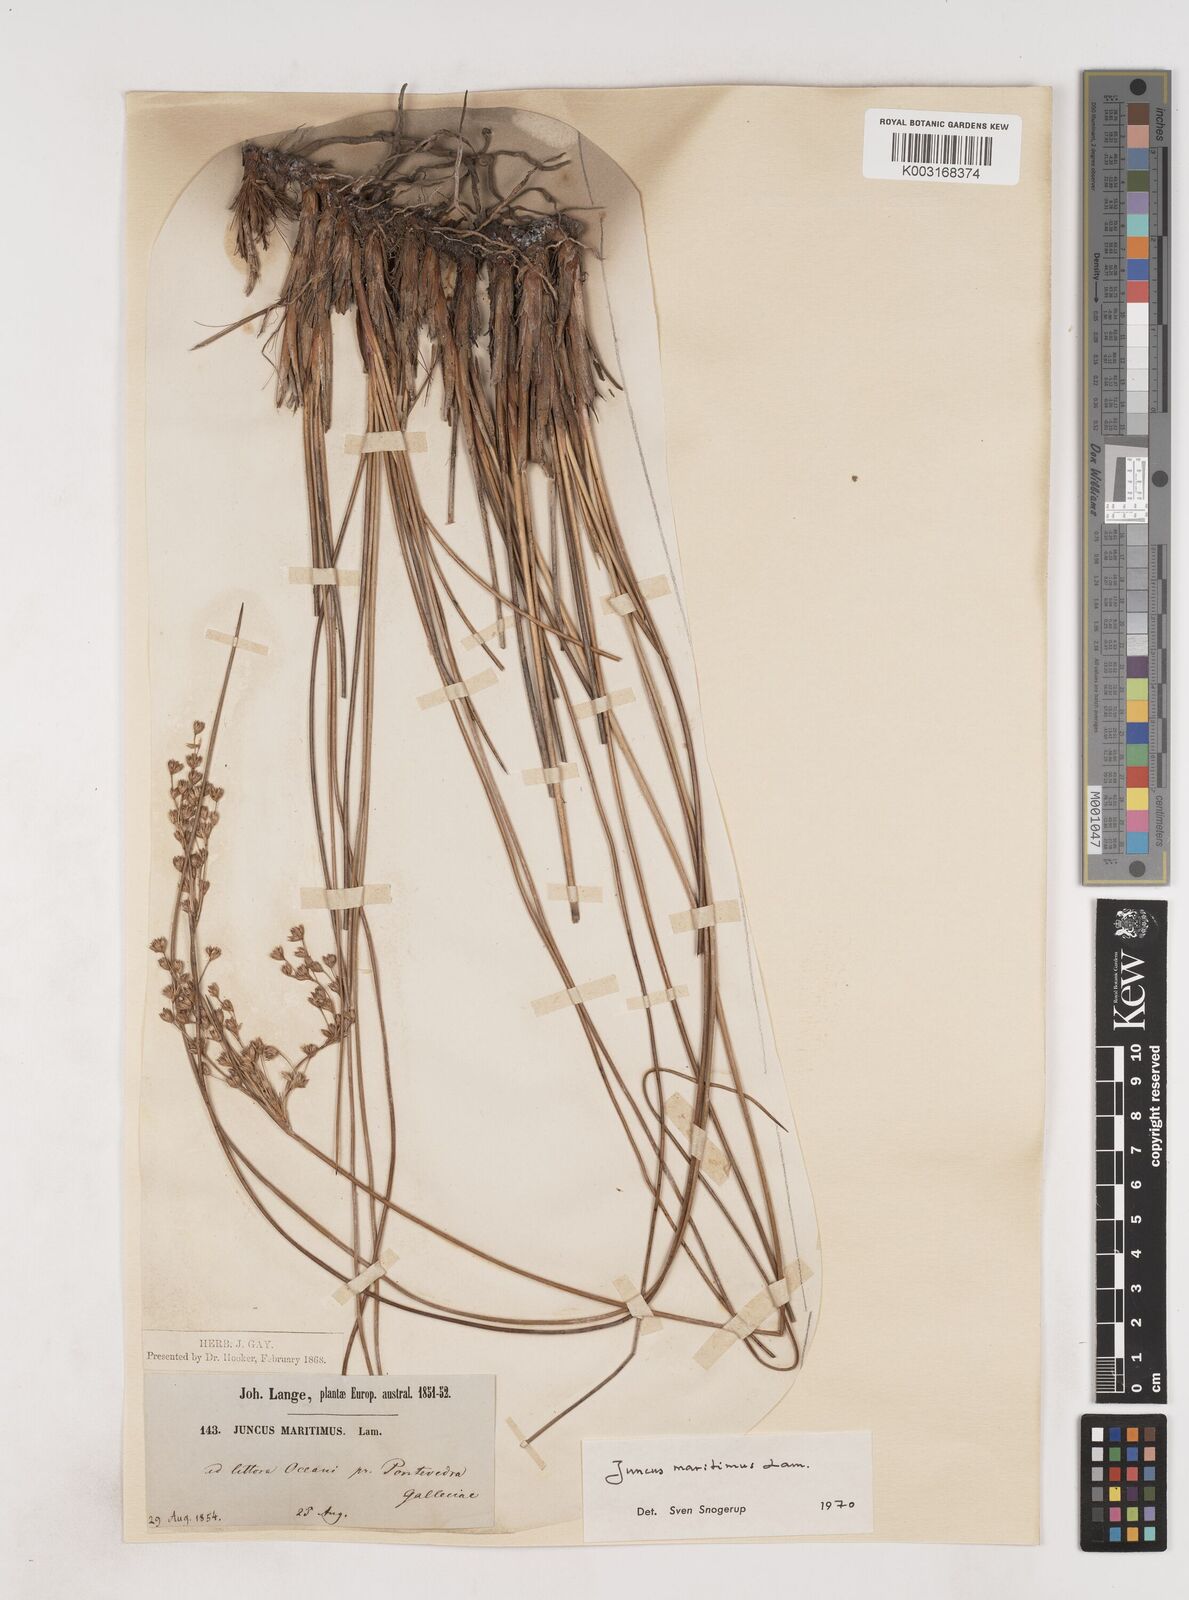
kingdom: Plantae
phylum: Tracheophyta
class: Liliopsida
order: Poales
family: Juncaceae
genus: Luzula
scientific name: Luzula sylvatica
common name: Great wood-rush
